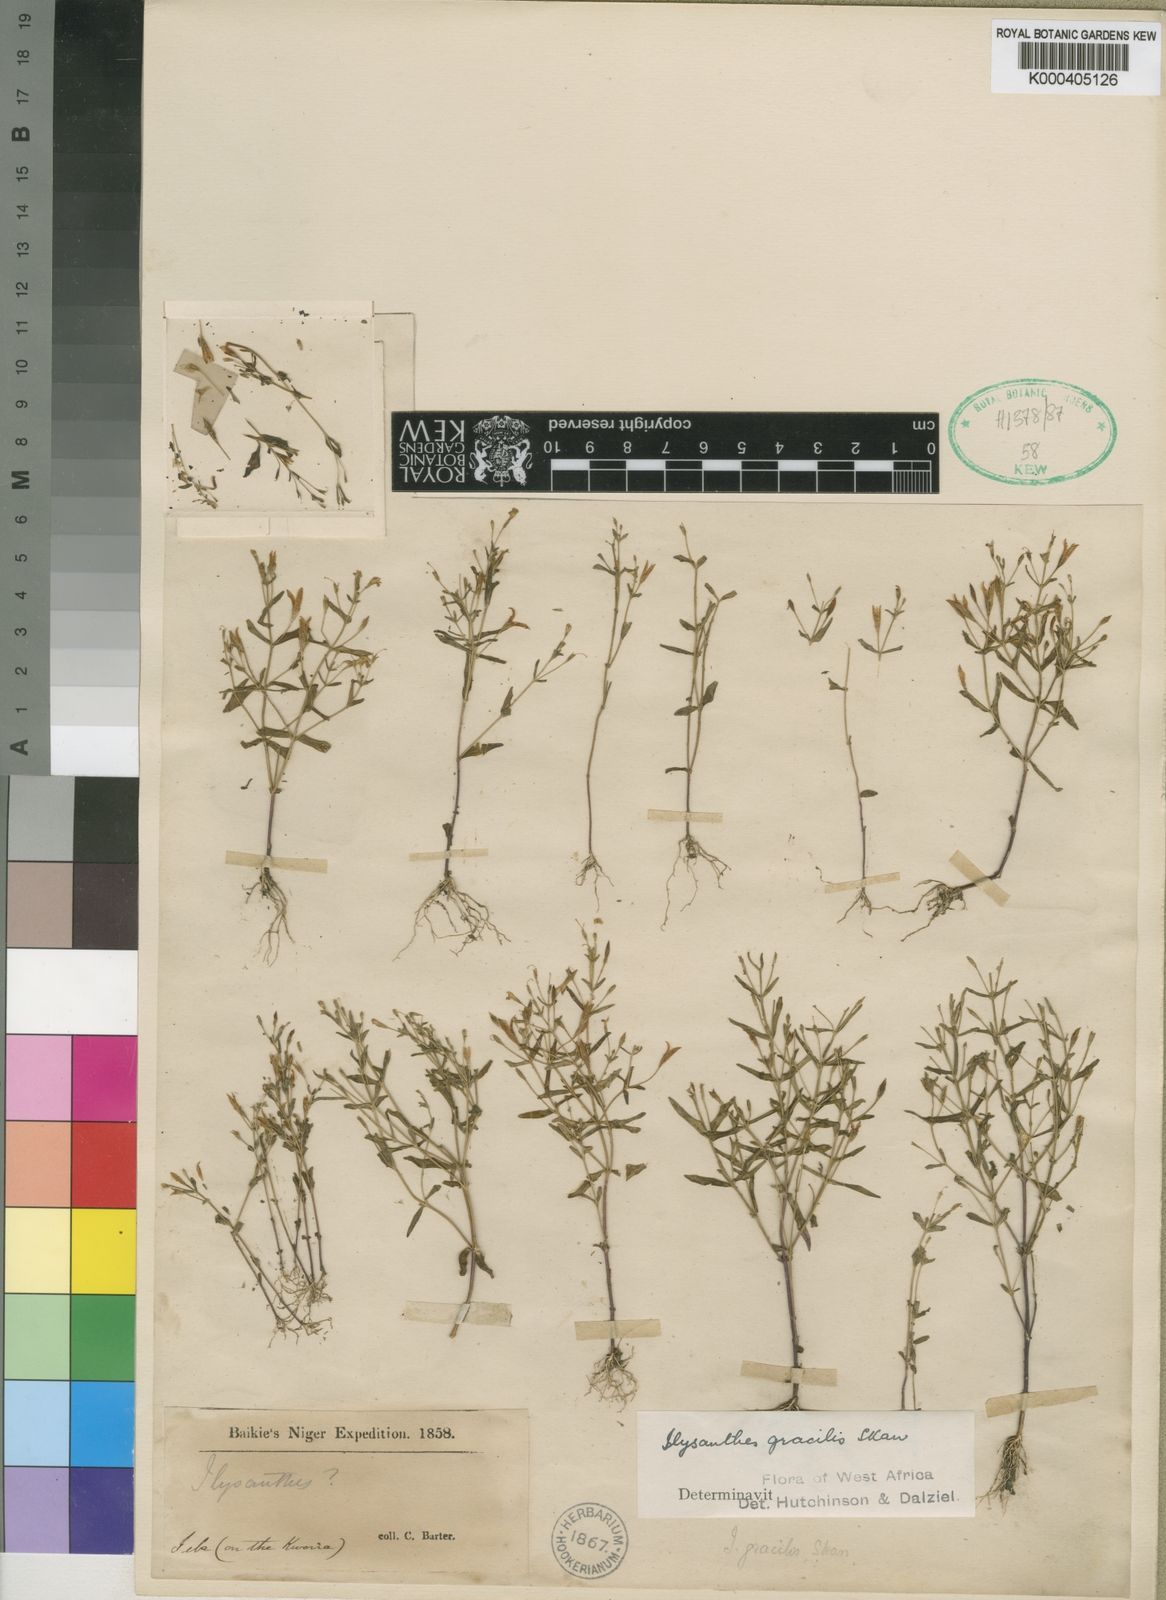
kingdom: Plantae
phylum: Tracheophyta
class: Magnoliopsida
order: Lamiales
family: Linderniaceae
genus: Torenia
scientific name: Torenia crustacea
